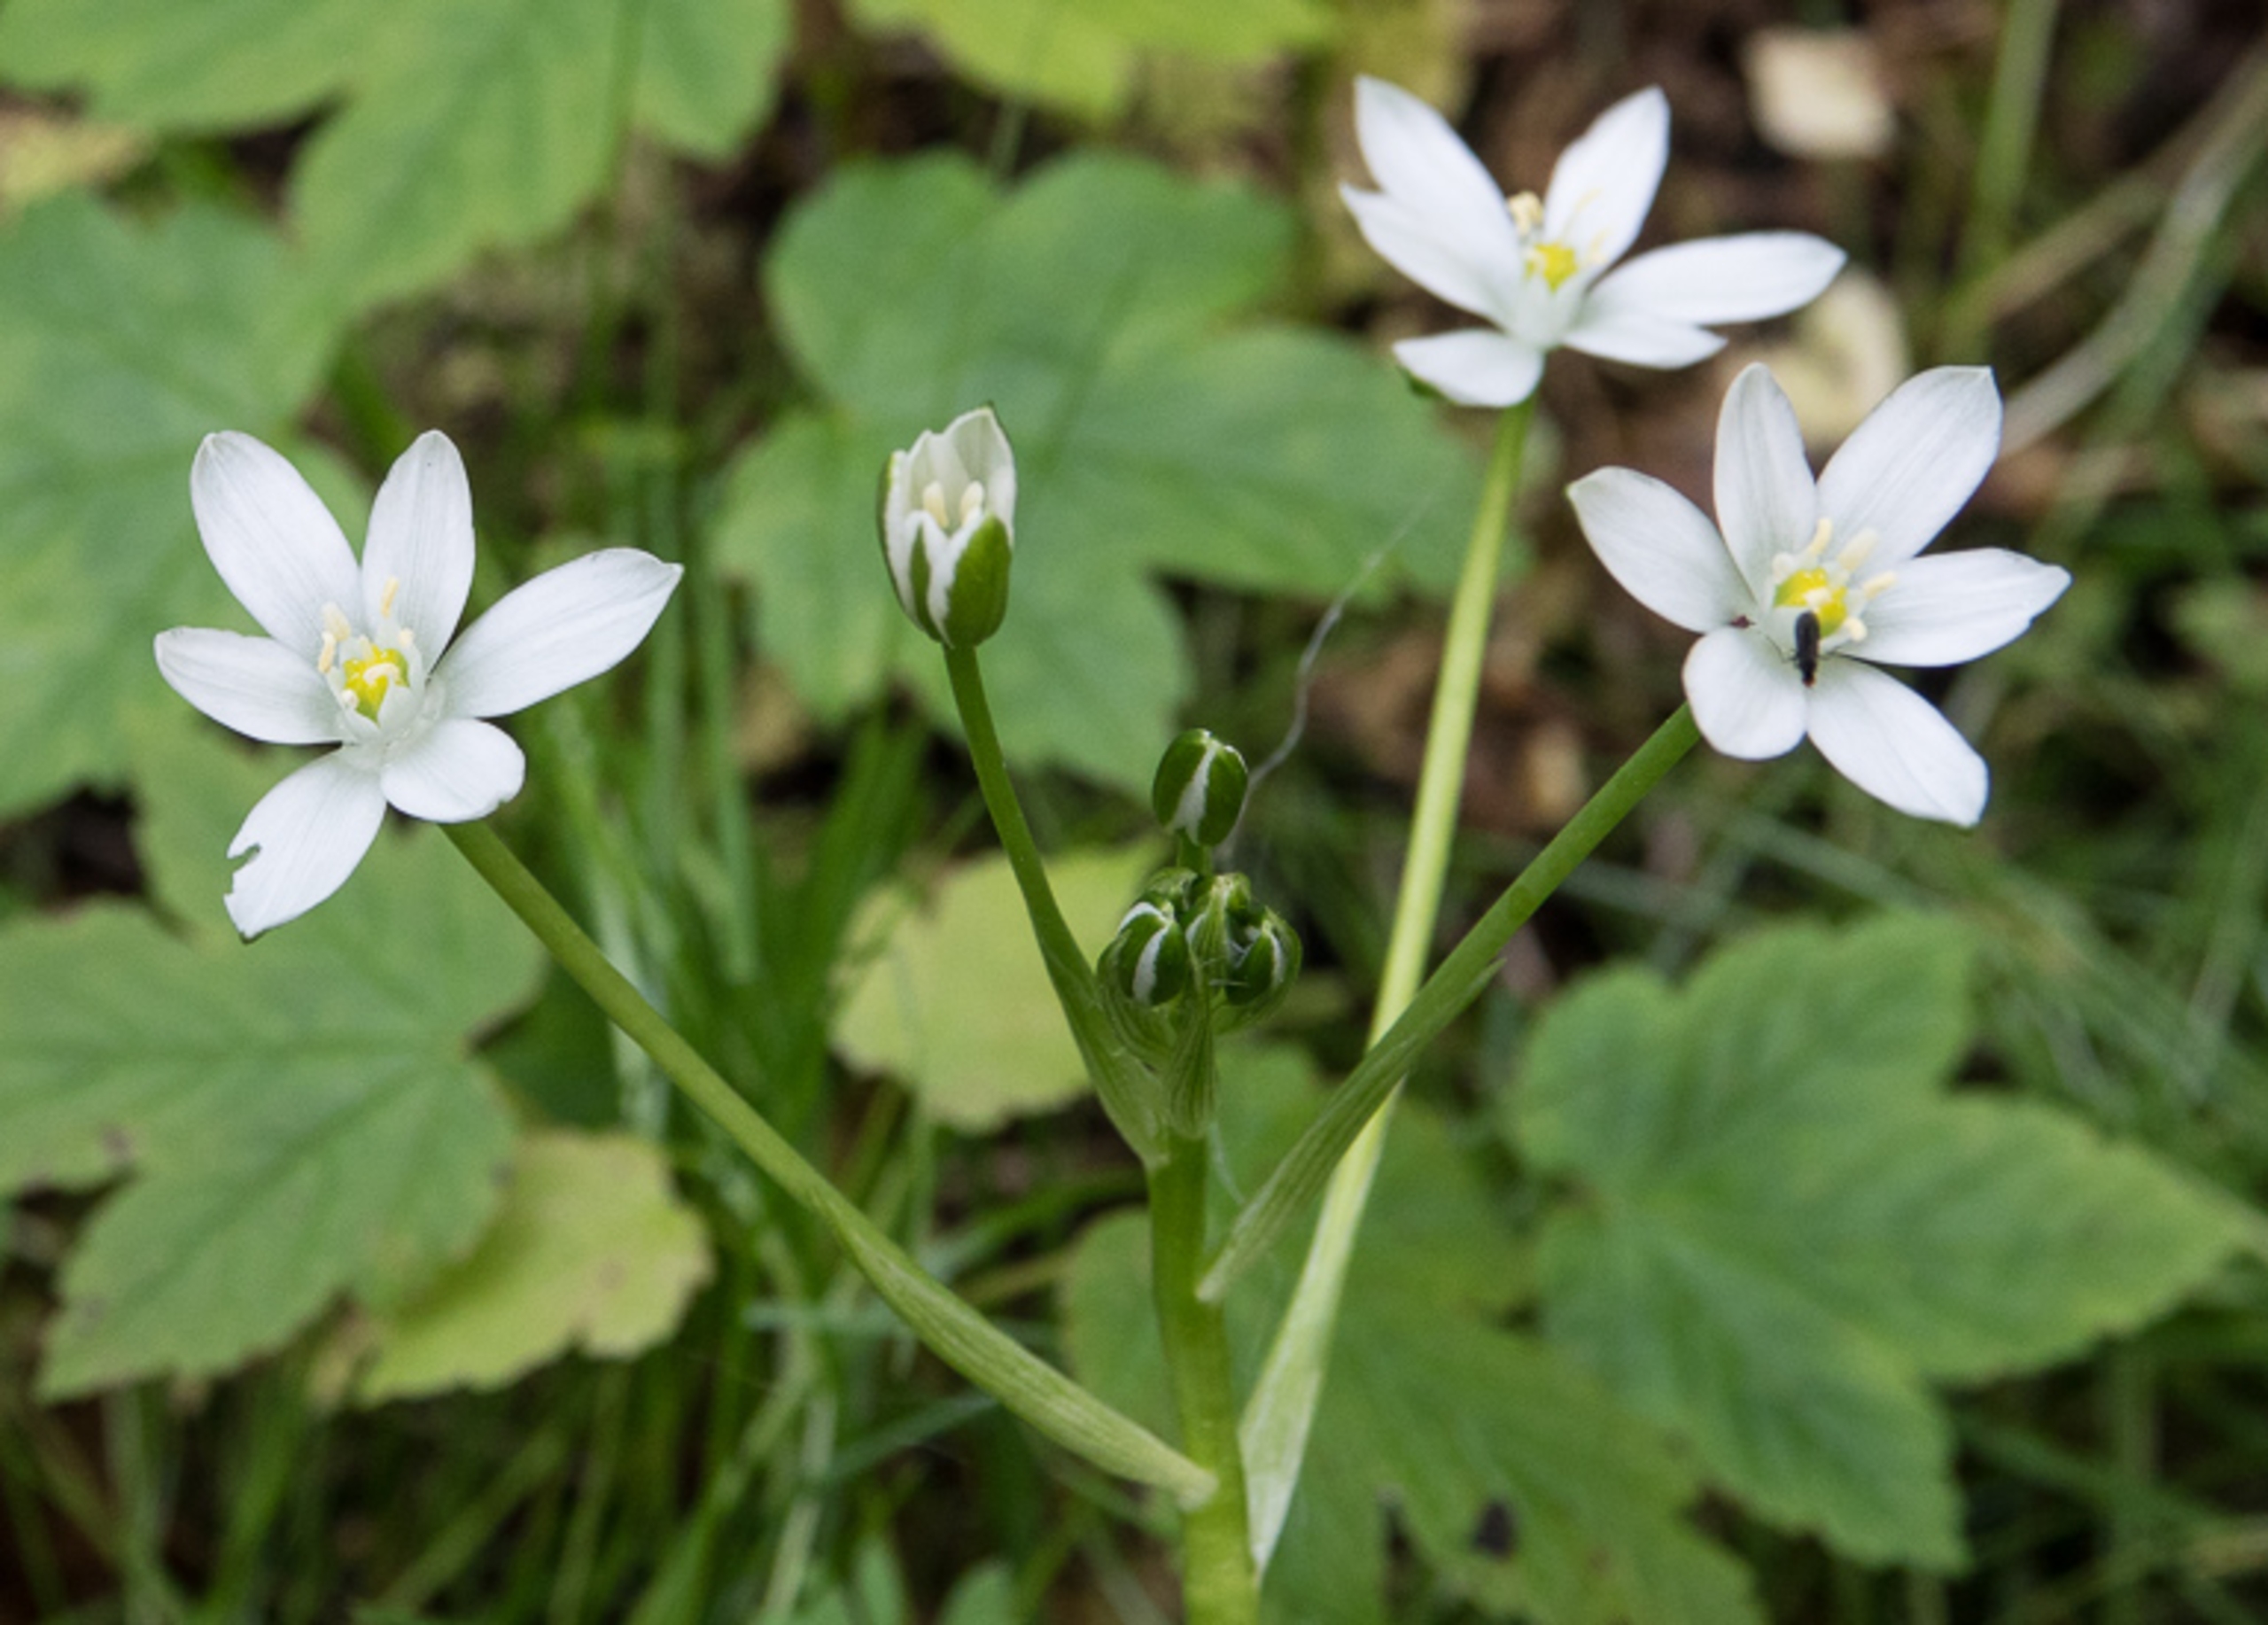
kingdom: Plantae
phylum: Tracheophyta
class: Liliopsida
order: Asparagales
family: Asparagaceae
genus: Ornithogalum
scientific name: Ornithogalum umbellatum
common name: Kost-fuglemælk
